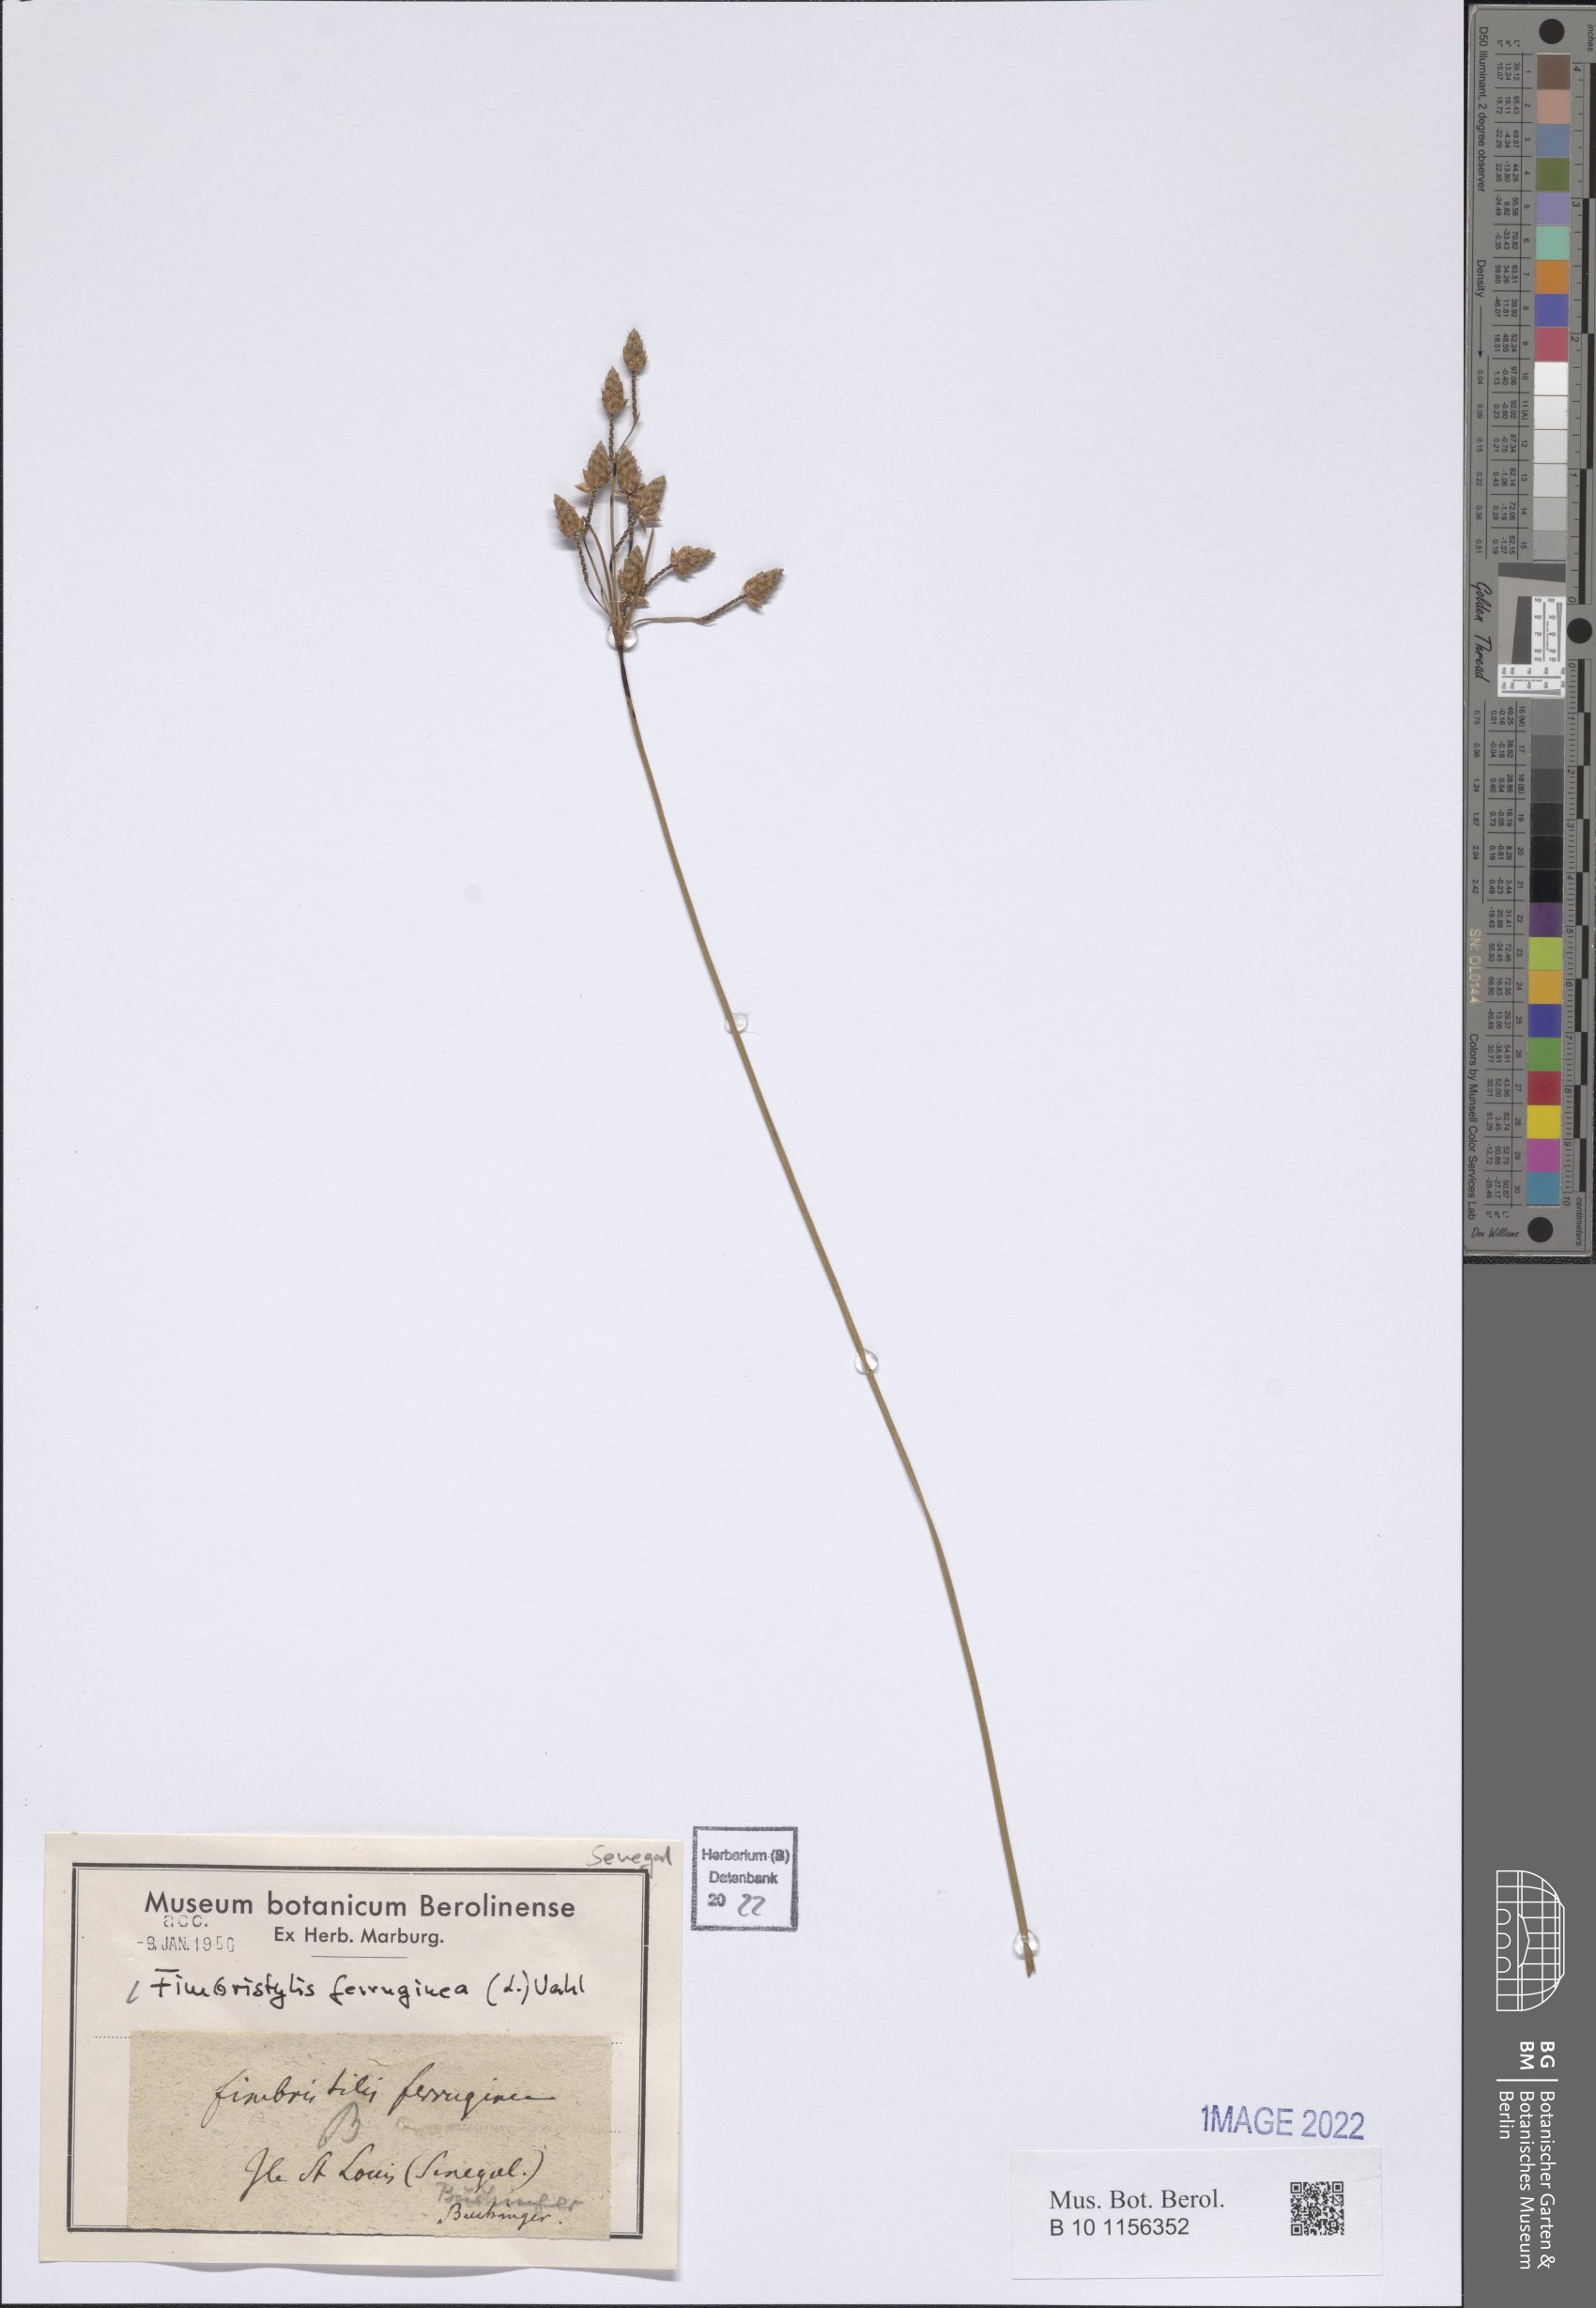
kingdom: Plantae
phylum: Tracheophyta
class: Liliopsida
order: Poales
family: Cyperaceae
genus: Fimbristylis
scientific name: Fimbristylis ferruginea
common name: West indian fimbry
